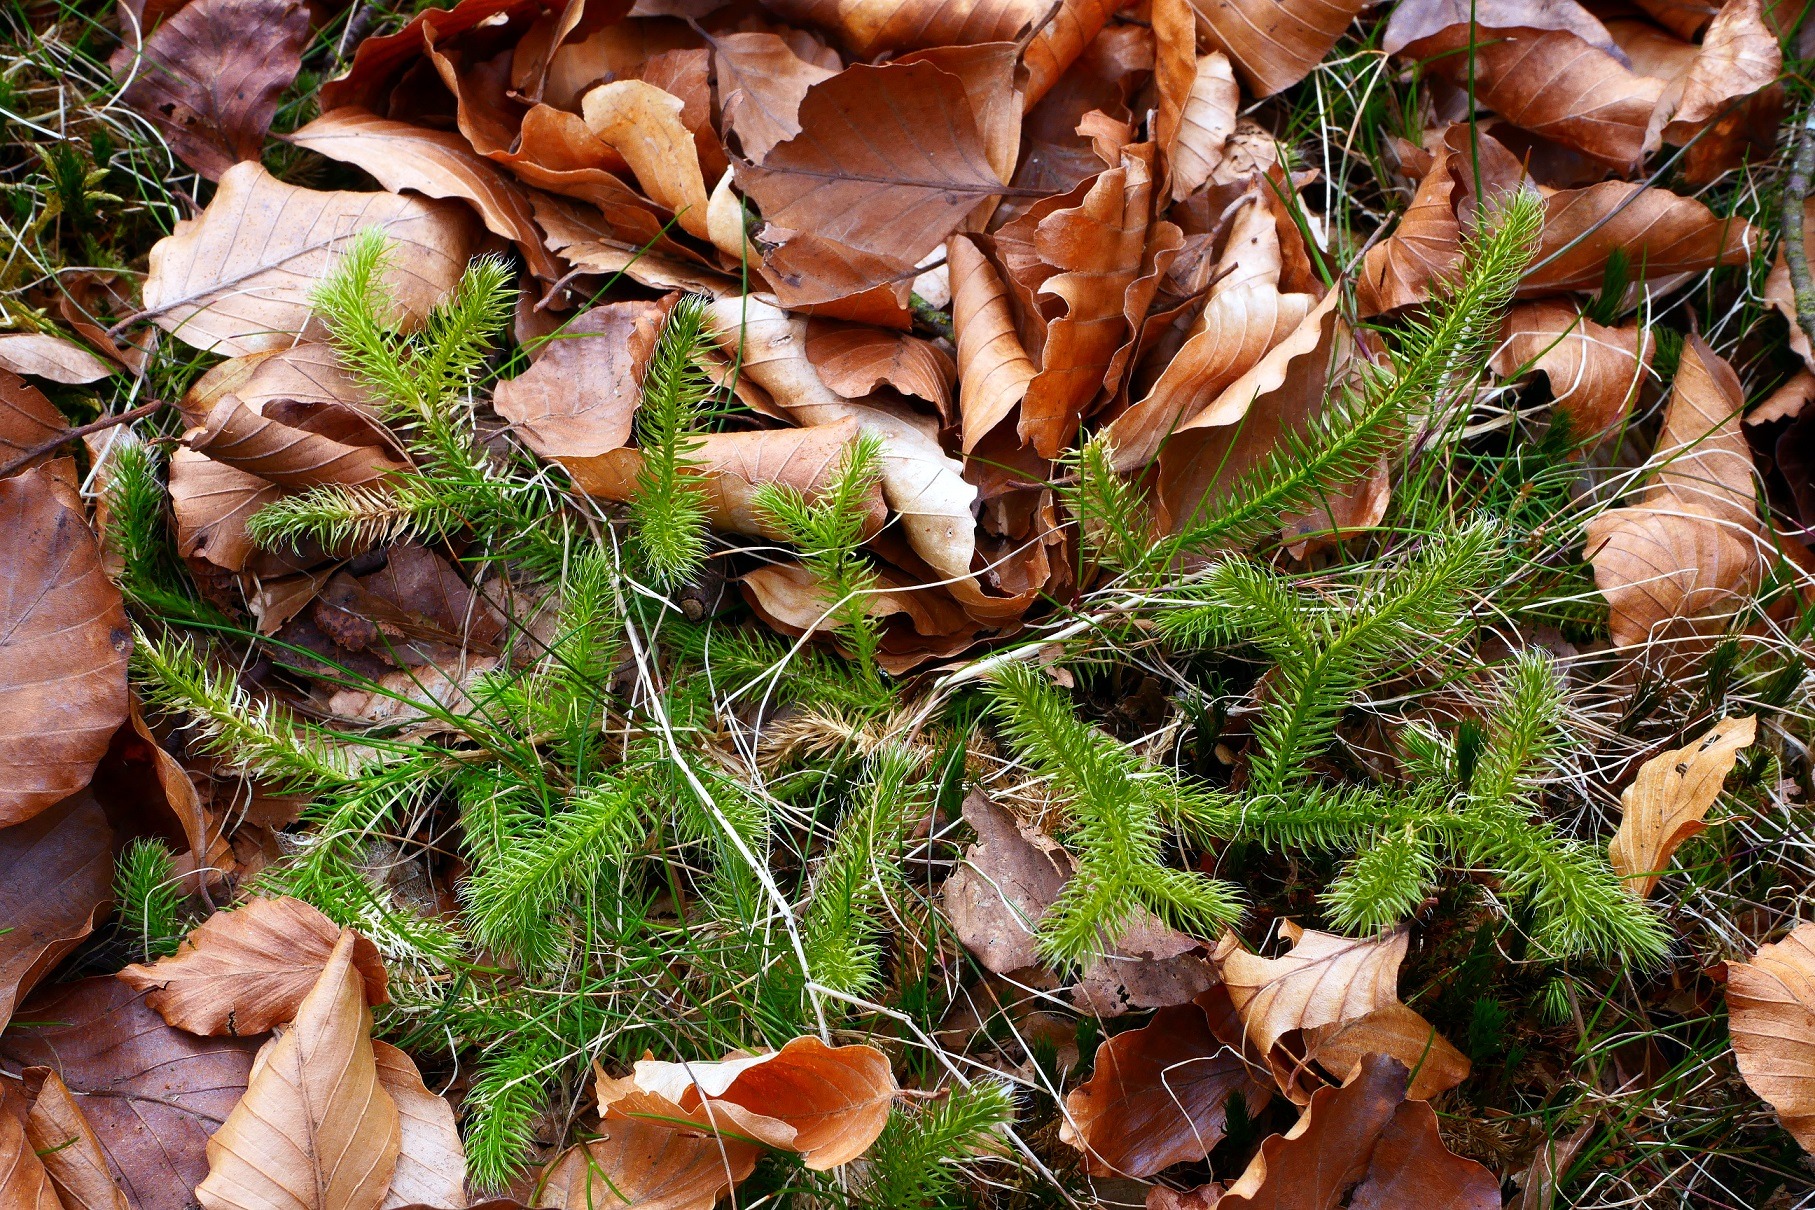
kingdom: Plantae
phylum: Tracheophyta
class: Lycopodiopsida
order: Lycopodiales
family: Lycopodiaceae
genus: Lycopodium
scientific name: Lycopodium clavatum
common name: Almindelig ulvefod
